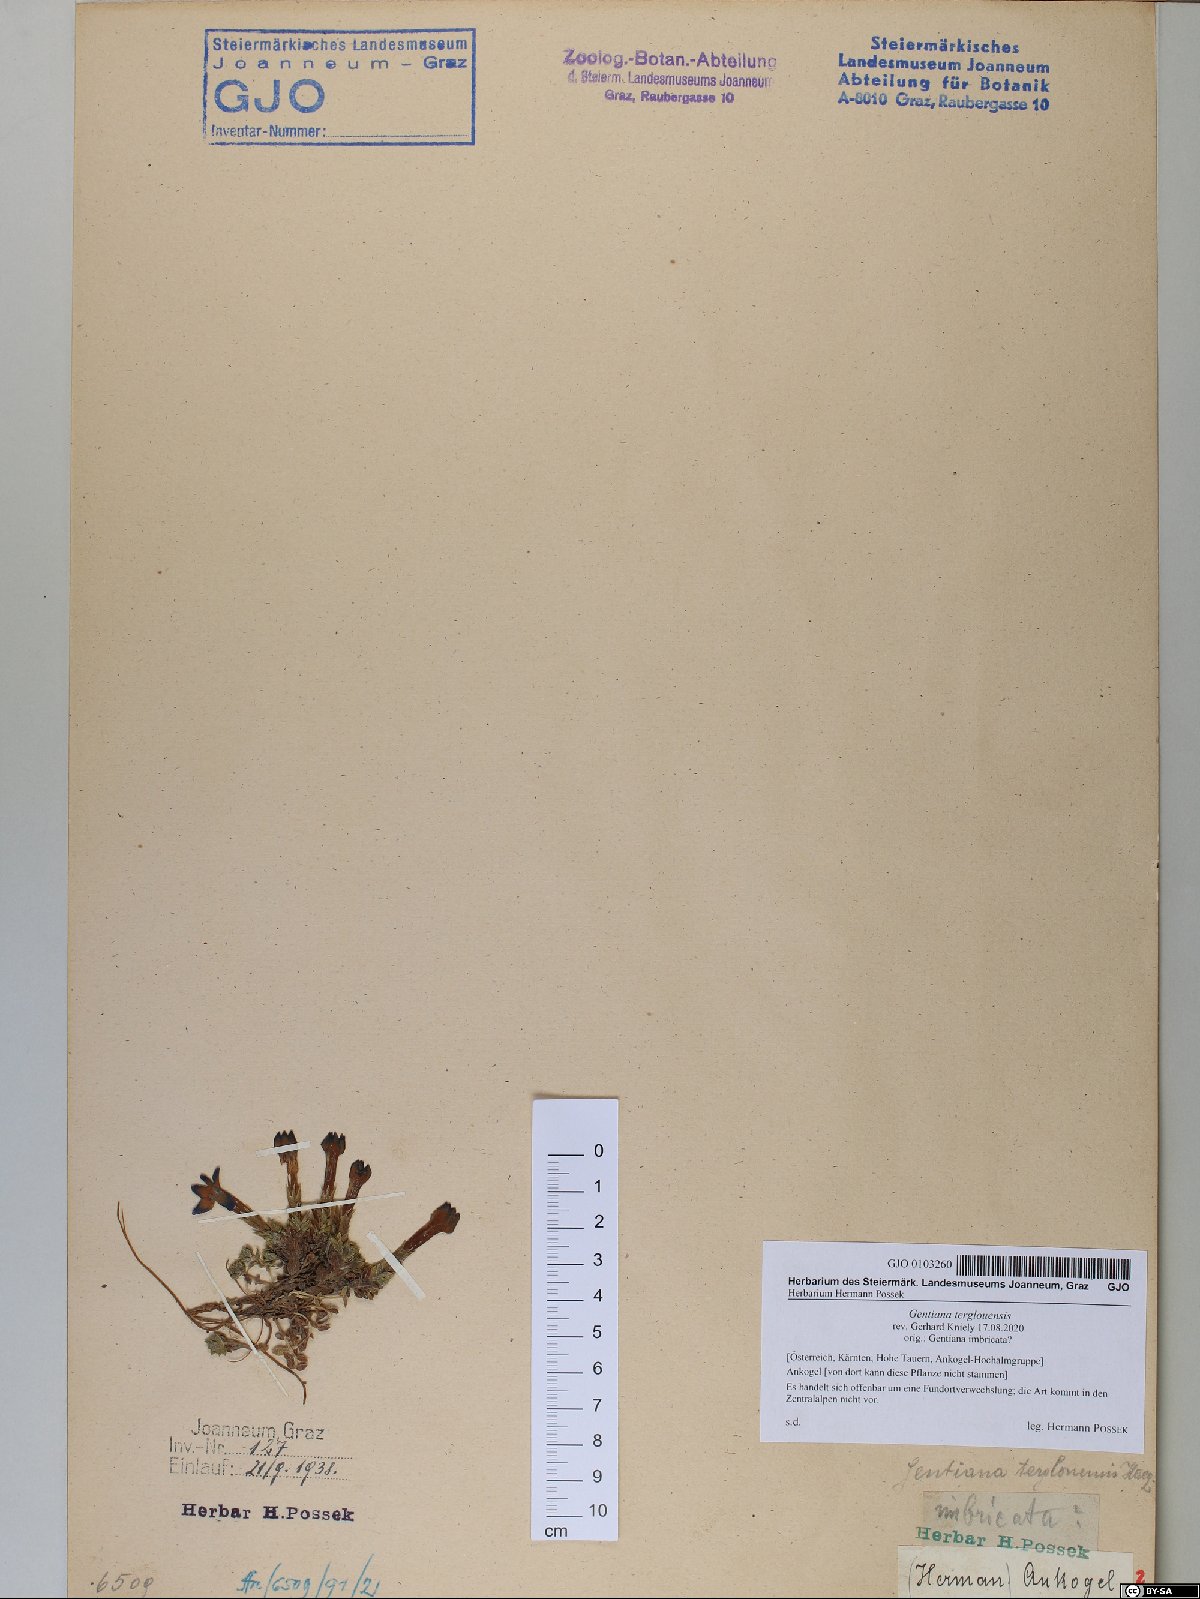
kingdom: Plantae
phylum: Tracheophyta
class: Magnoliopsida
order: Gentianales
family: Gentianaceae
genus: Gentiana
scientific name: Gentiana terglouensis
